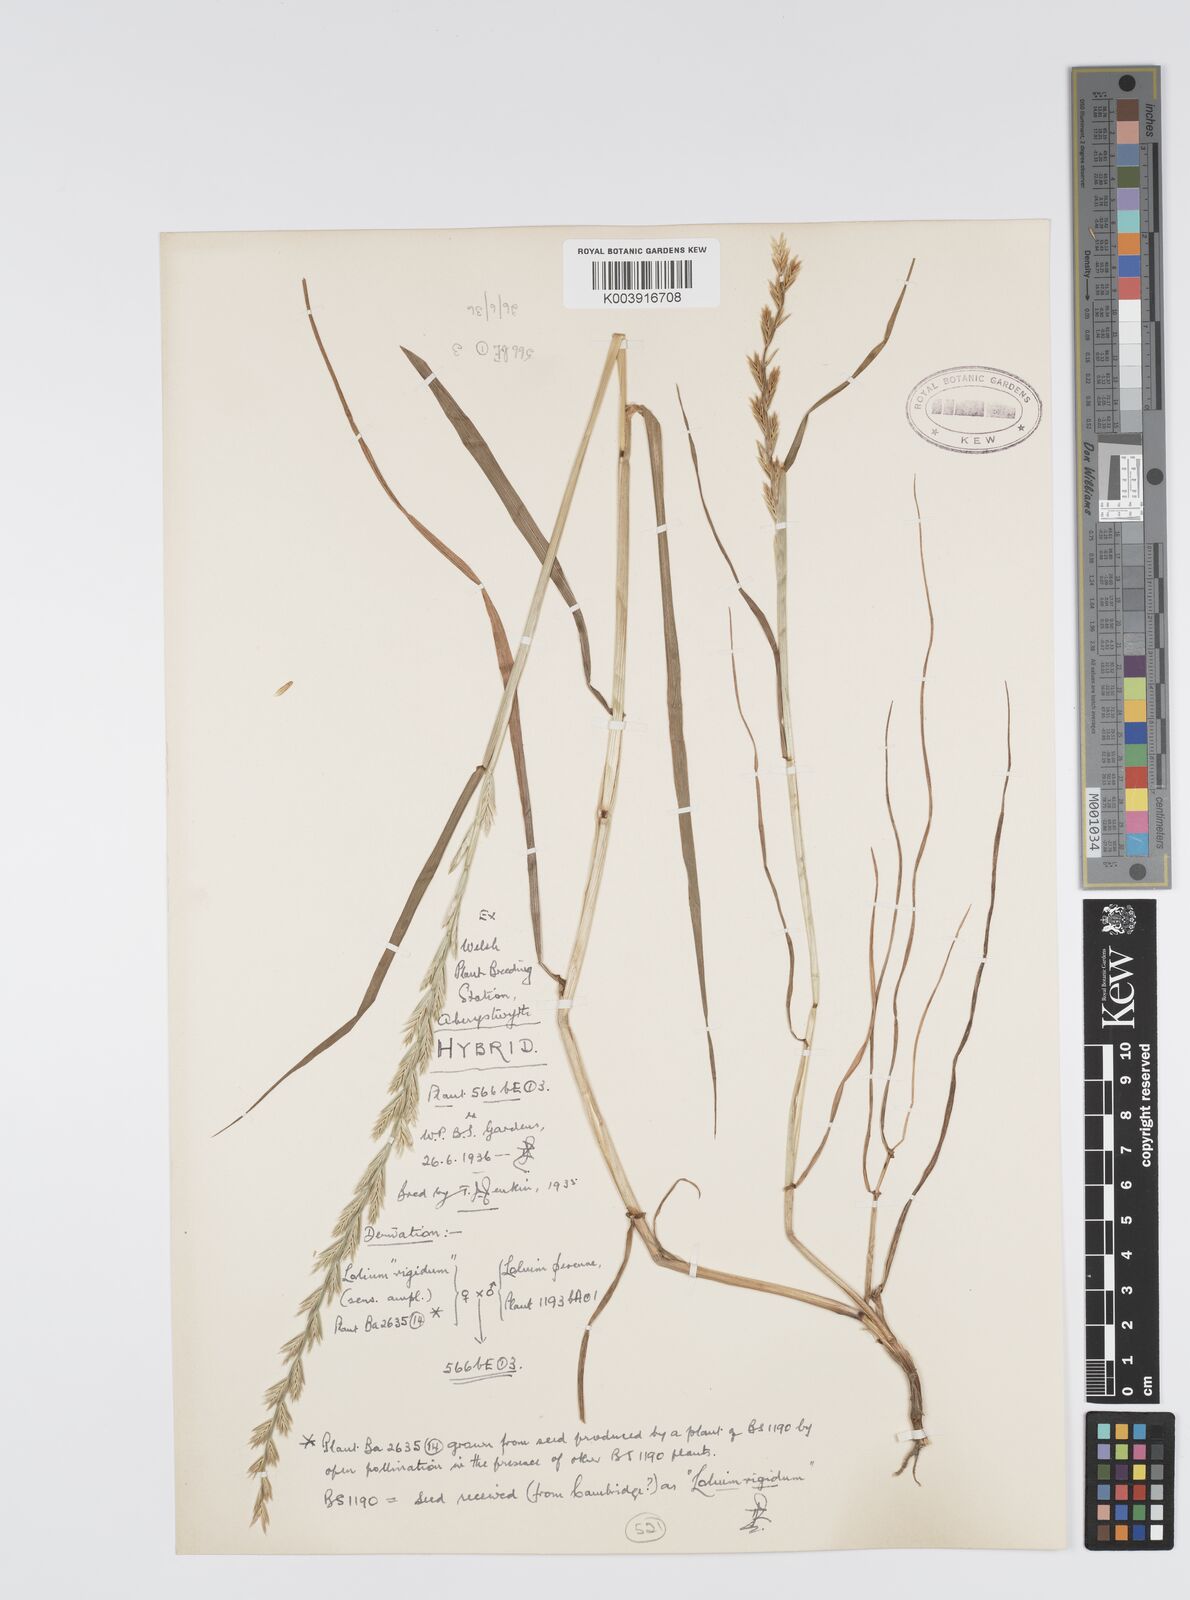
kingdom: Plantae
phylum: Tracheophyta
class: Liliopsida
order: Poales
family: Poaceae
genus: Lolium
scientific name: Lolium perenne
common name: Perennial ryegrass
